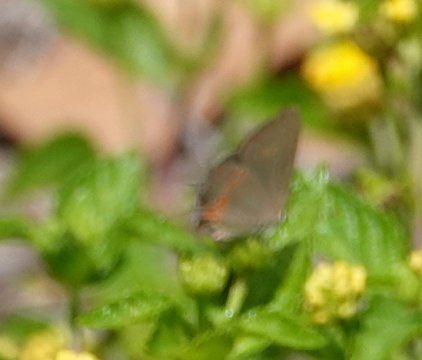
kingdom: Animalia
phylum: Arthropoda
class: Insecta
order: Lepidoptera
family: Lycaenidae
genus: Calycopis
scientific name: Calycopis cecrops
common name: Red-banded Hairstreak
